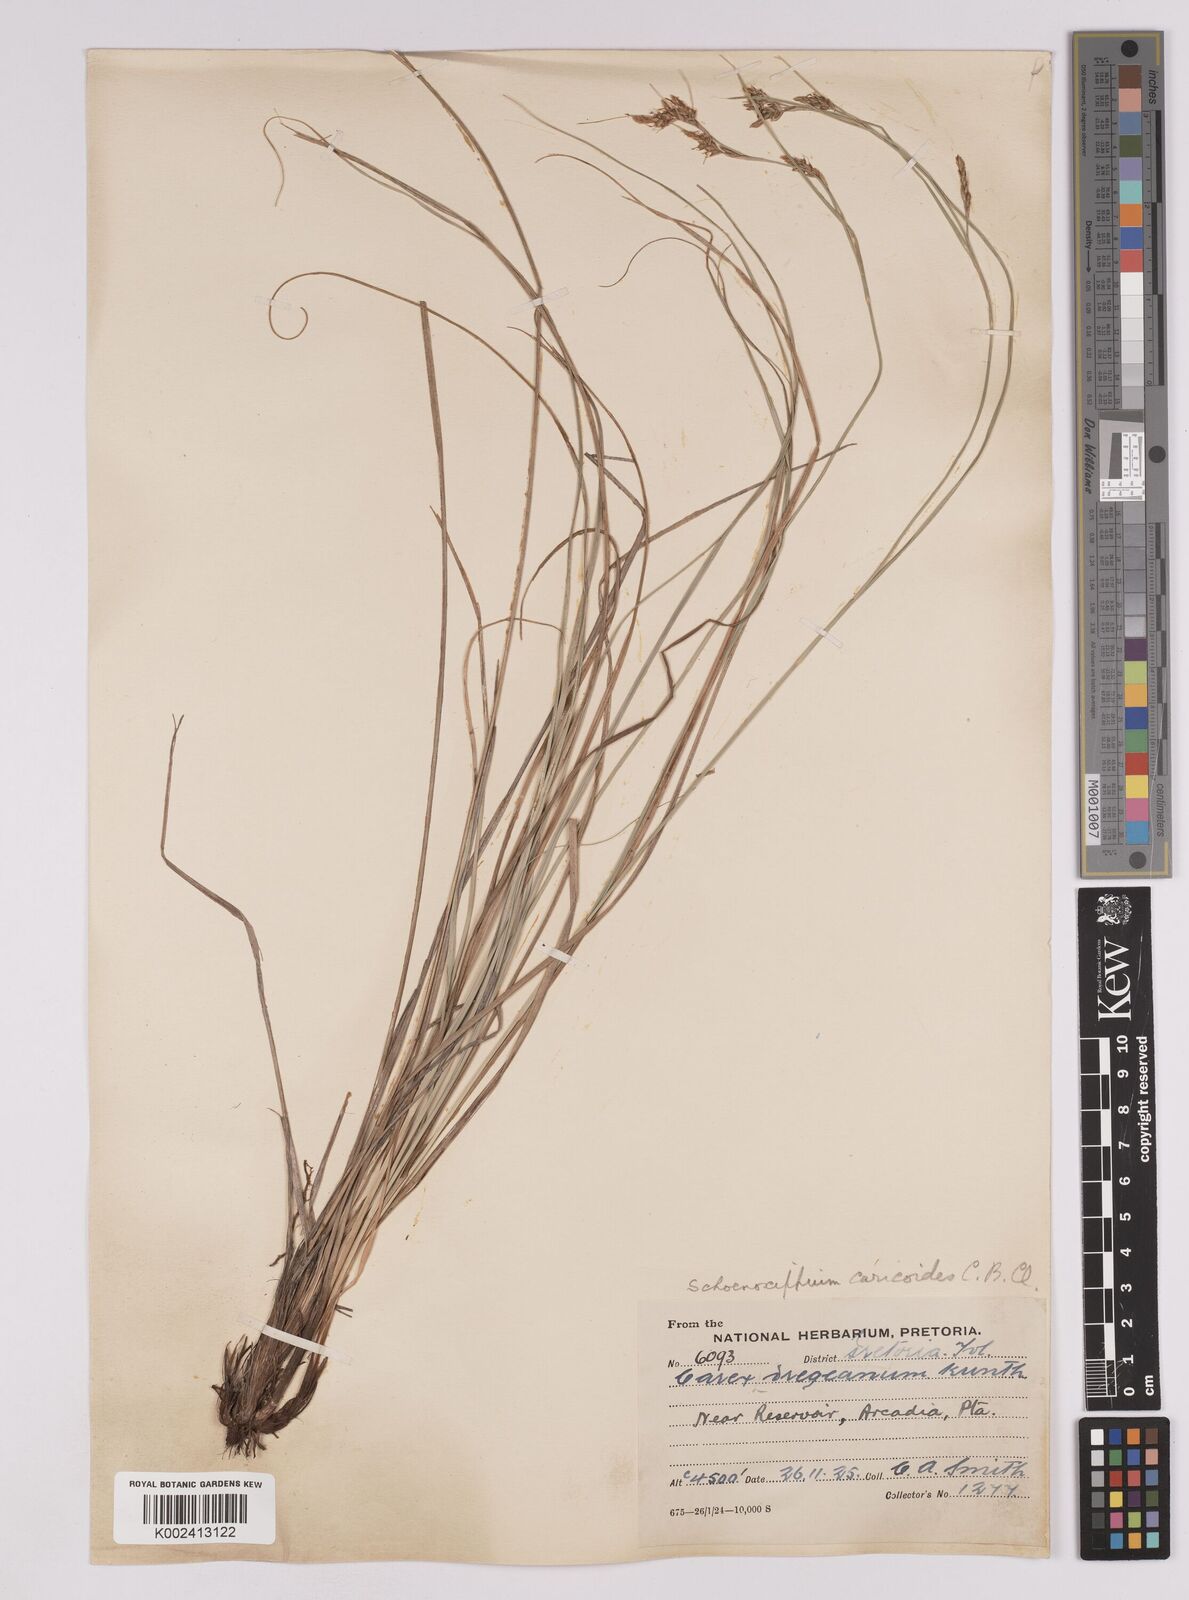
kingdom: Plantae
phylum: Tracheophyta
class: Liliopsida
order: Poales
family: Cyperaceae
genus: Carex
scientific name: Carex spartea
